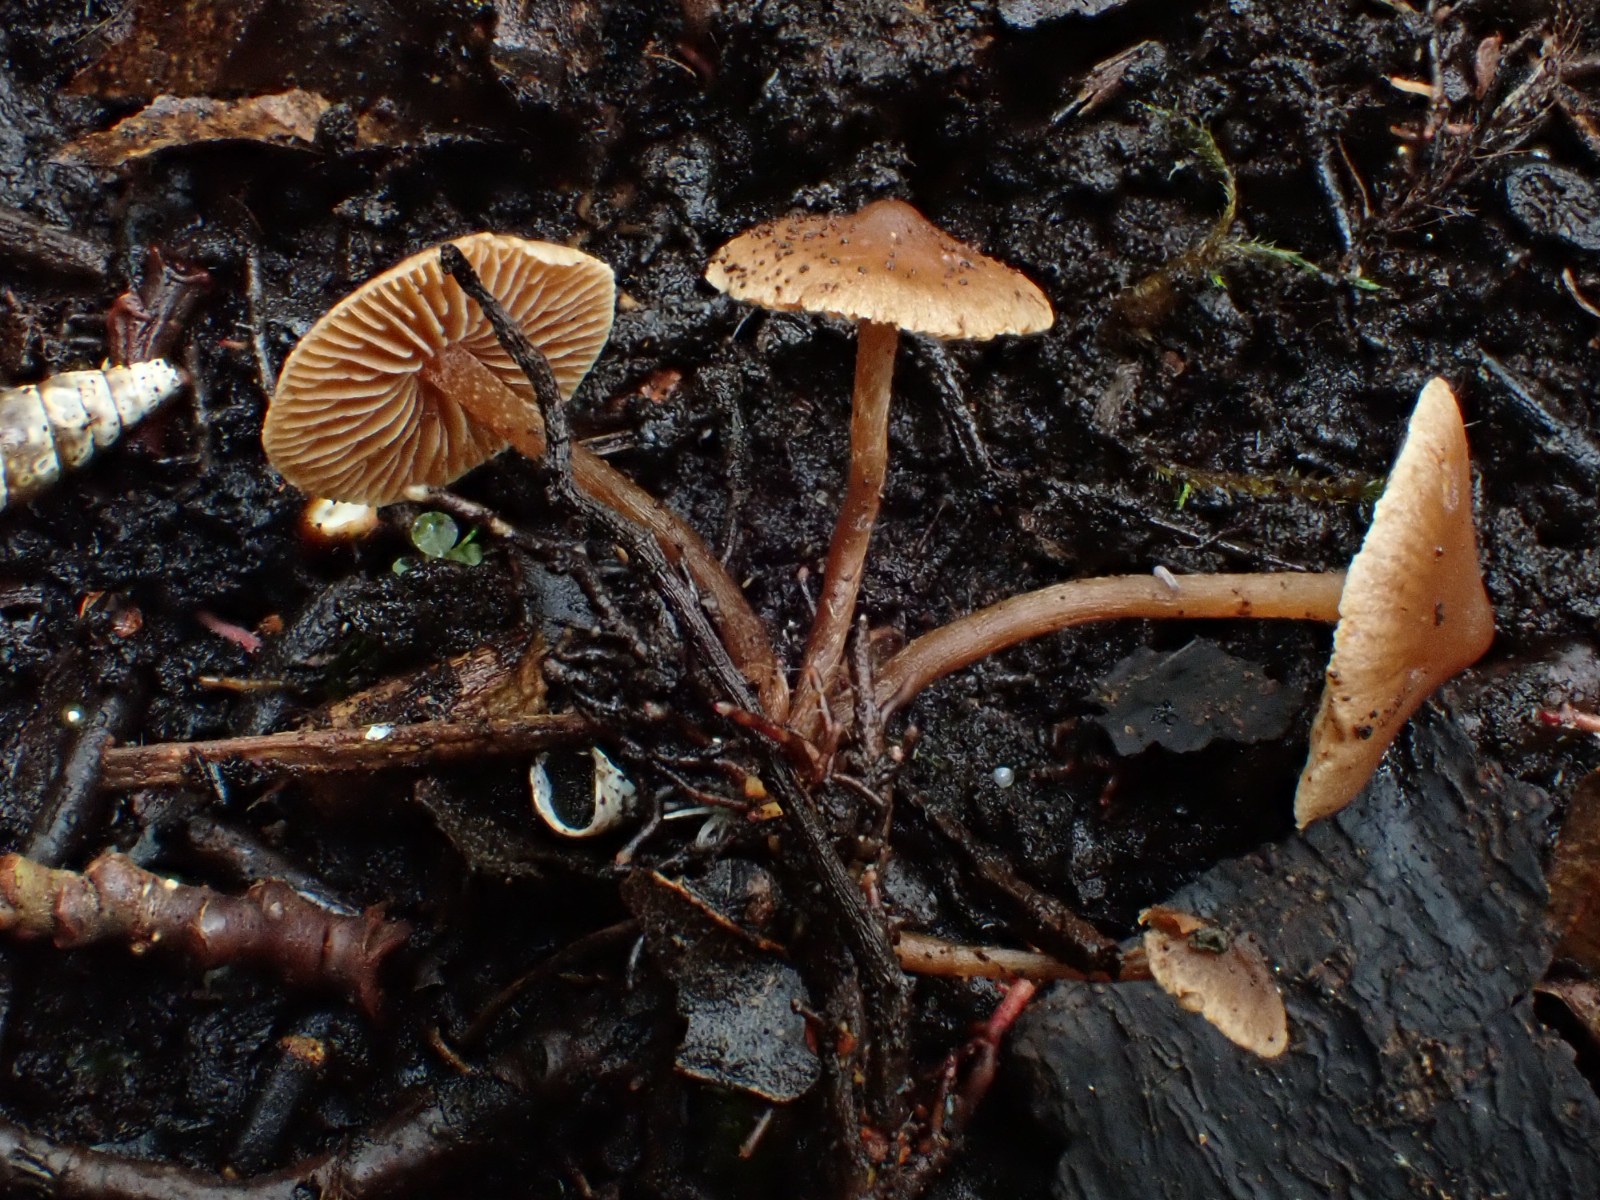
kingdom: Fungi
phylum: Basidiomycota
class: Agaricomycetes
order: Agaricales
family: Hymenogastraceae
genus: Naucoria
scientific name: Naucoria scolecina
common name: mørk elle-knaphat
